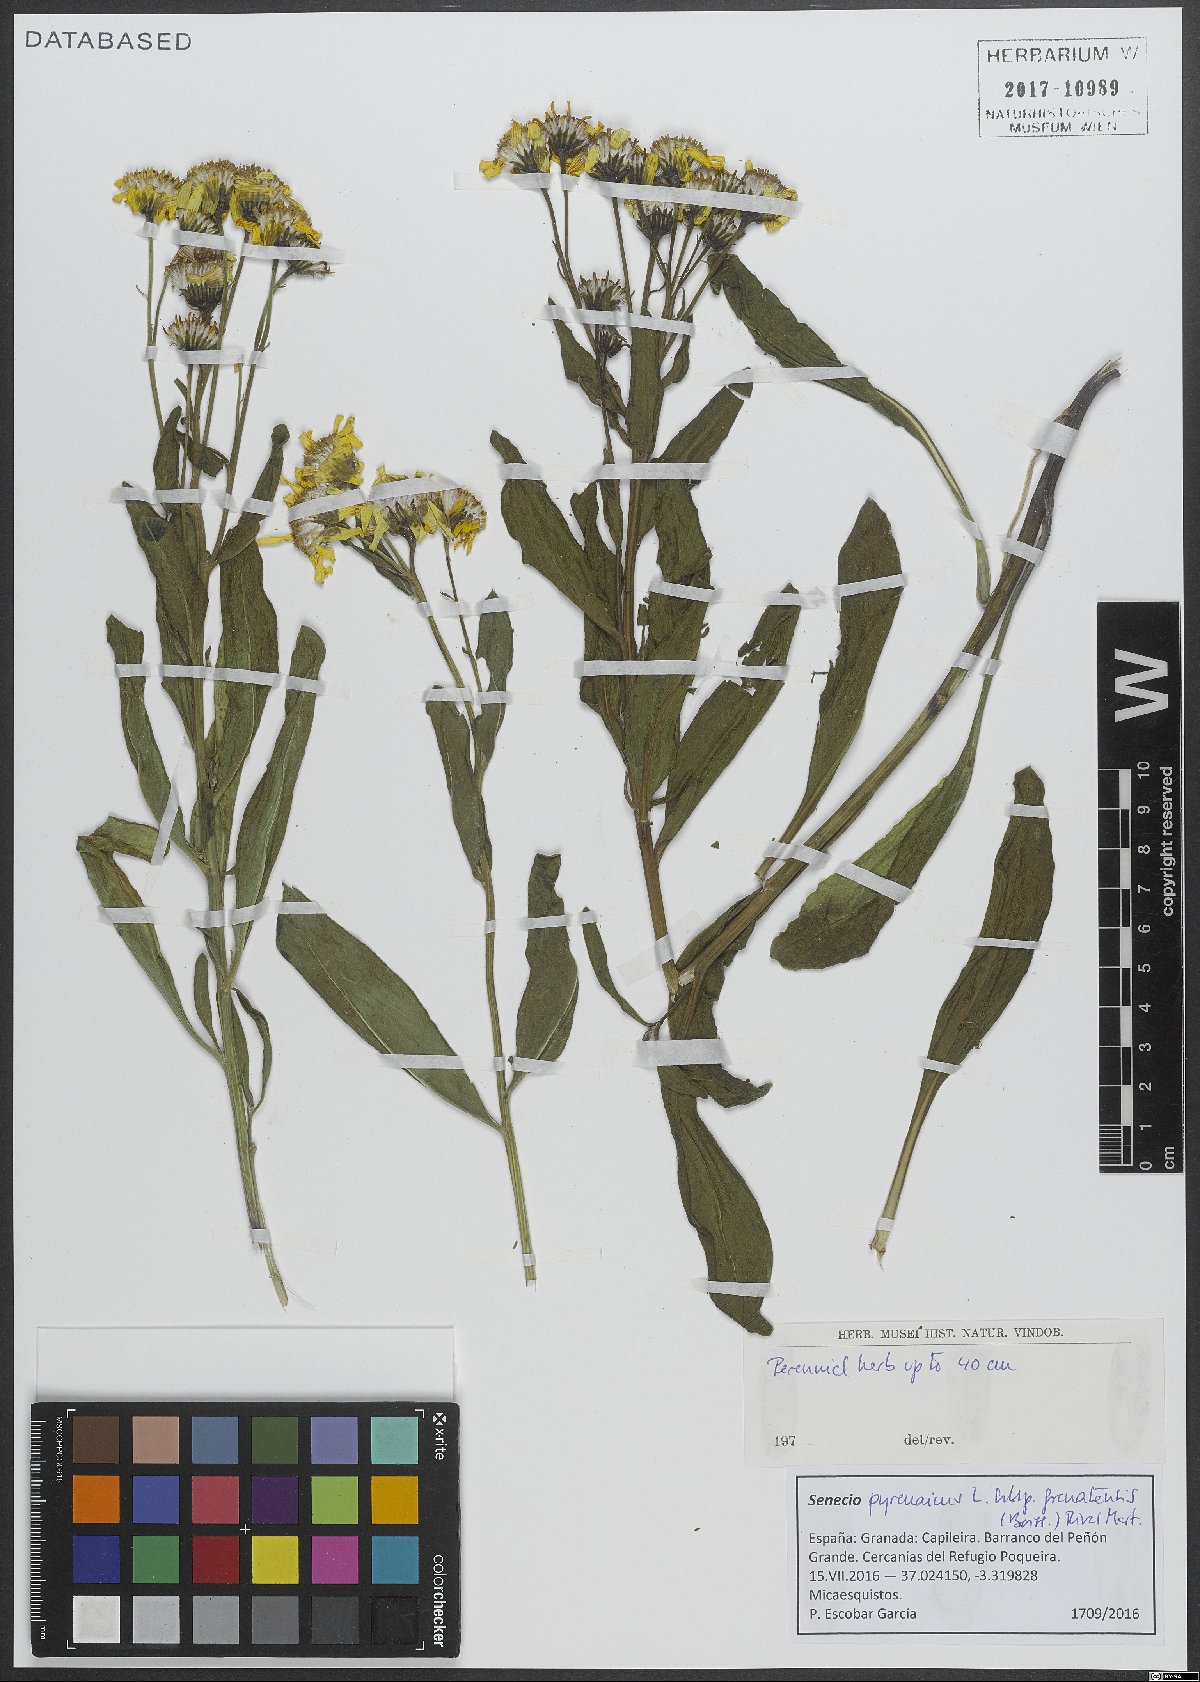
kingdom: Plantae
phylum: Tracheophyta
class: Magnoliopsida
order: Asterales
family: Asteraceae
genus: Senecio
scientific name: Senecio pyrenaicus
